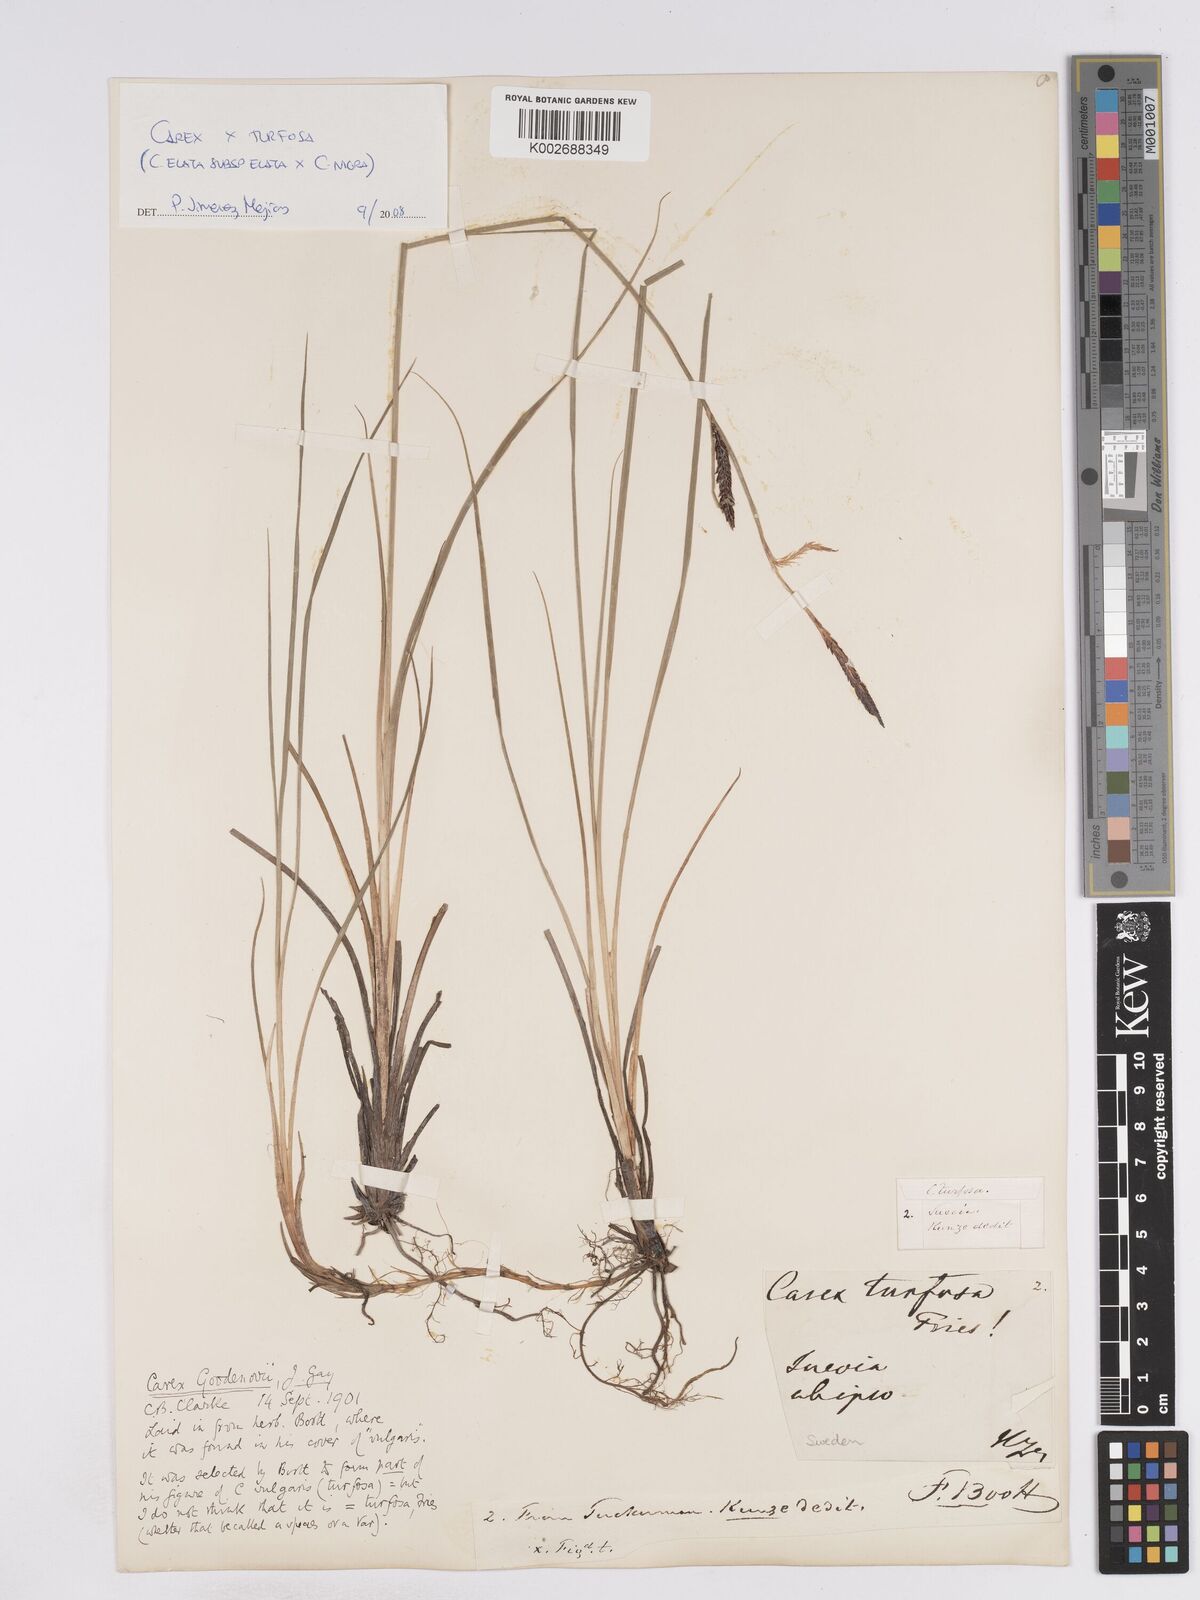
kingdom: Plantae
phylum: Tracheophyta
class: Liliopsida
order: Poales
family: Cyperaceae
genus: Carex
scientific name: Carex elata
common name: Tufted sedge
